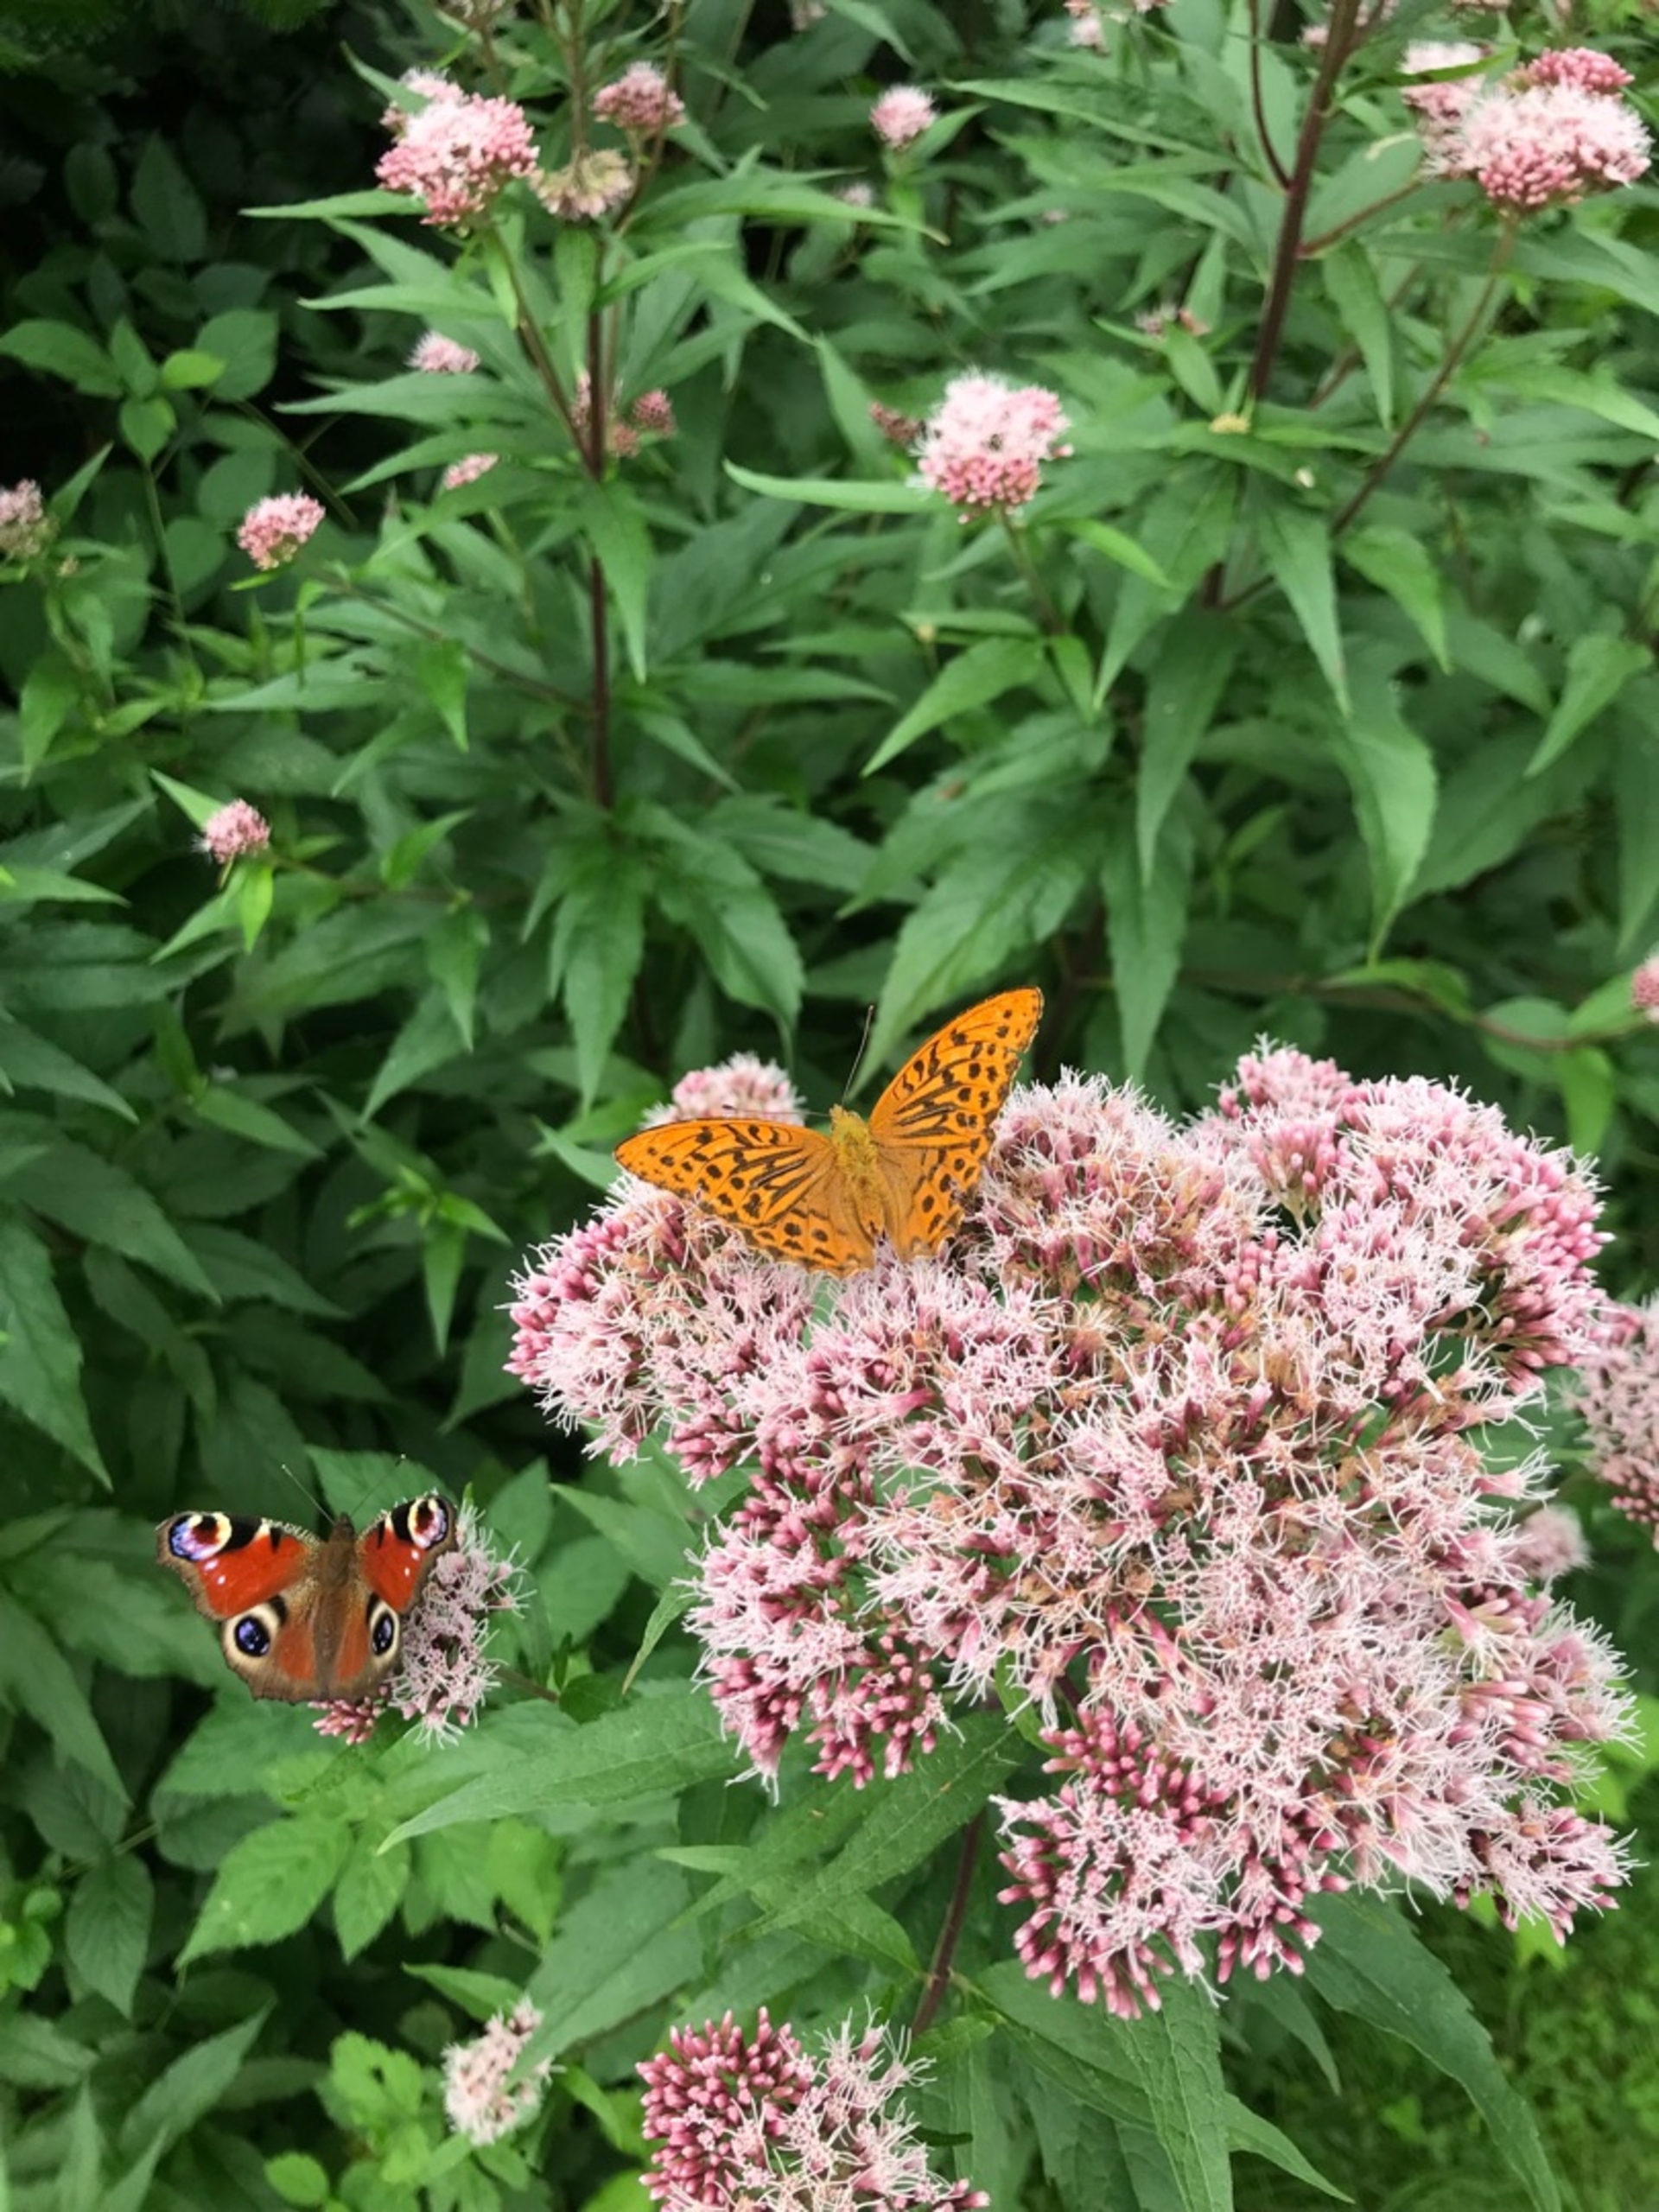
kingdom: Animalia
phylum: Arthropoda
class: Insecta
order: Lepidoptera
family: Nymphalidae
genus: Argynnis
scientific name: Argynnis paphia
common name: Kejserkåbe
